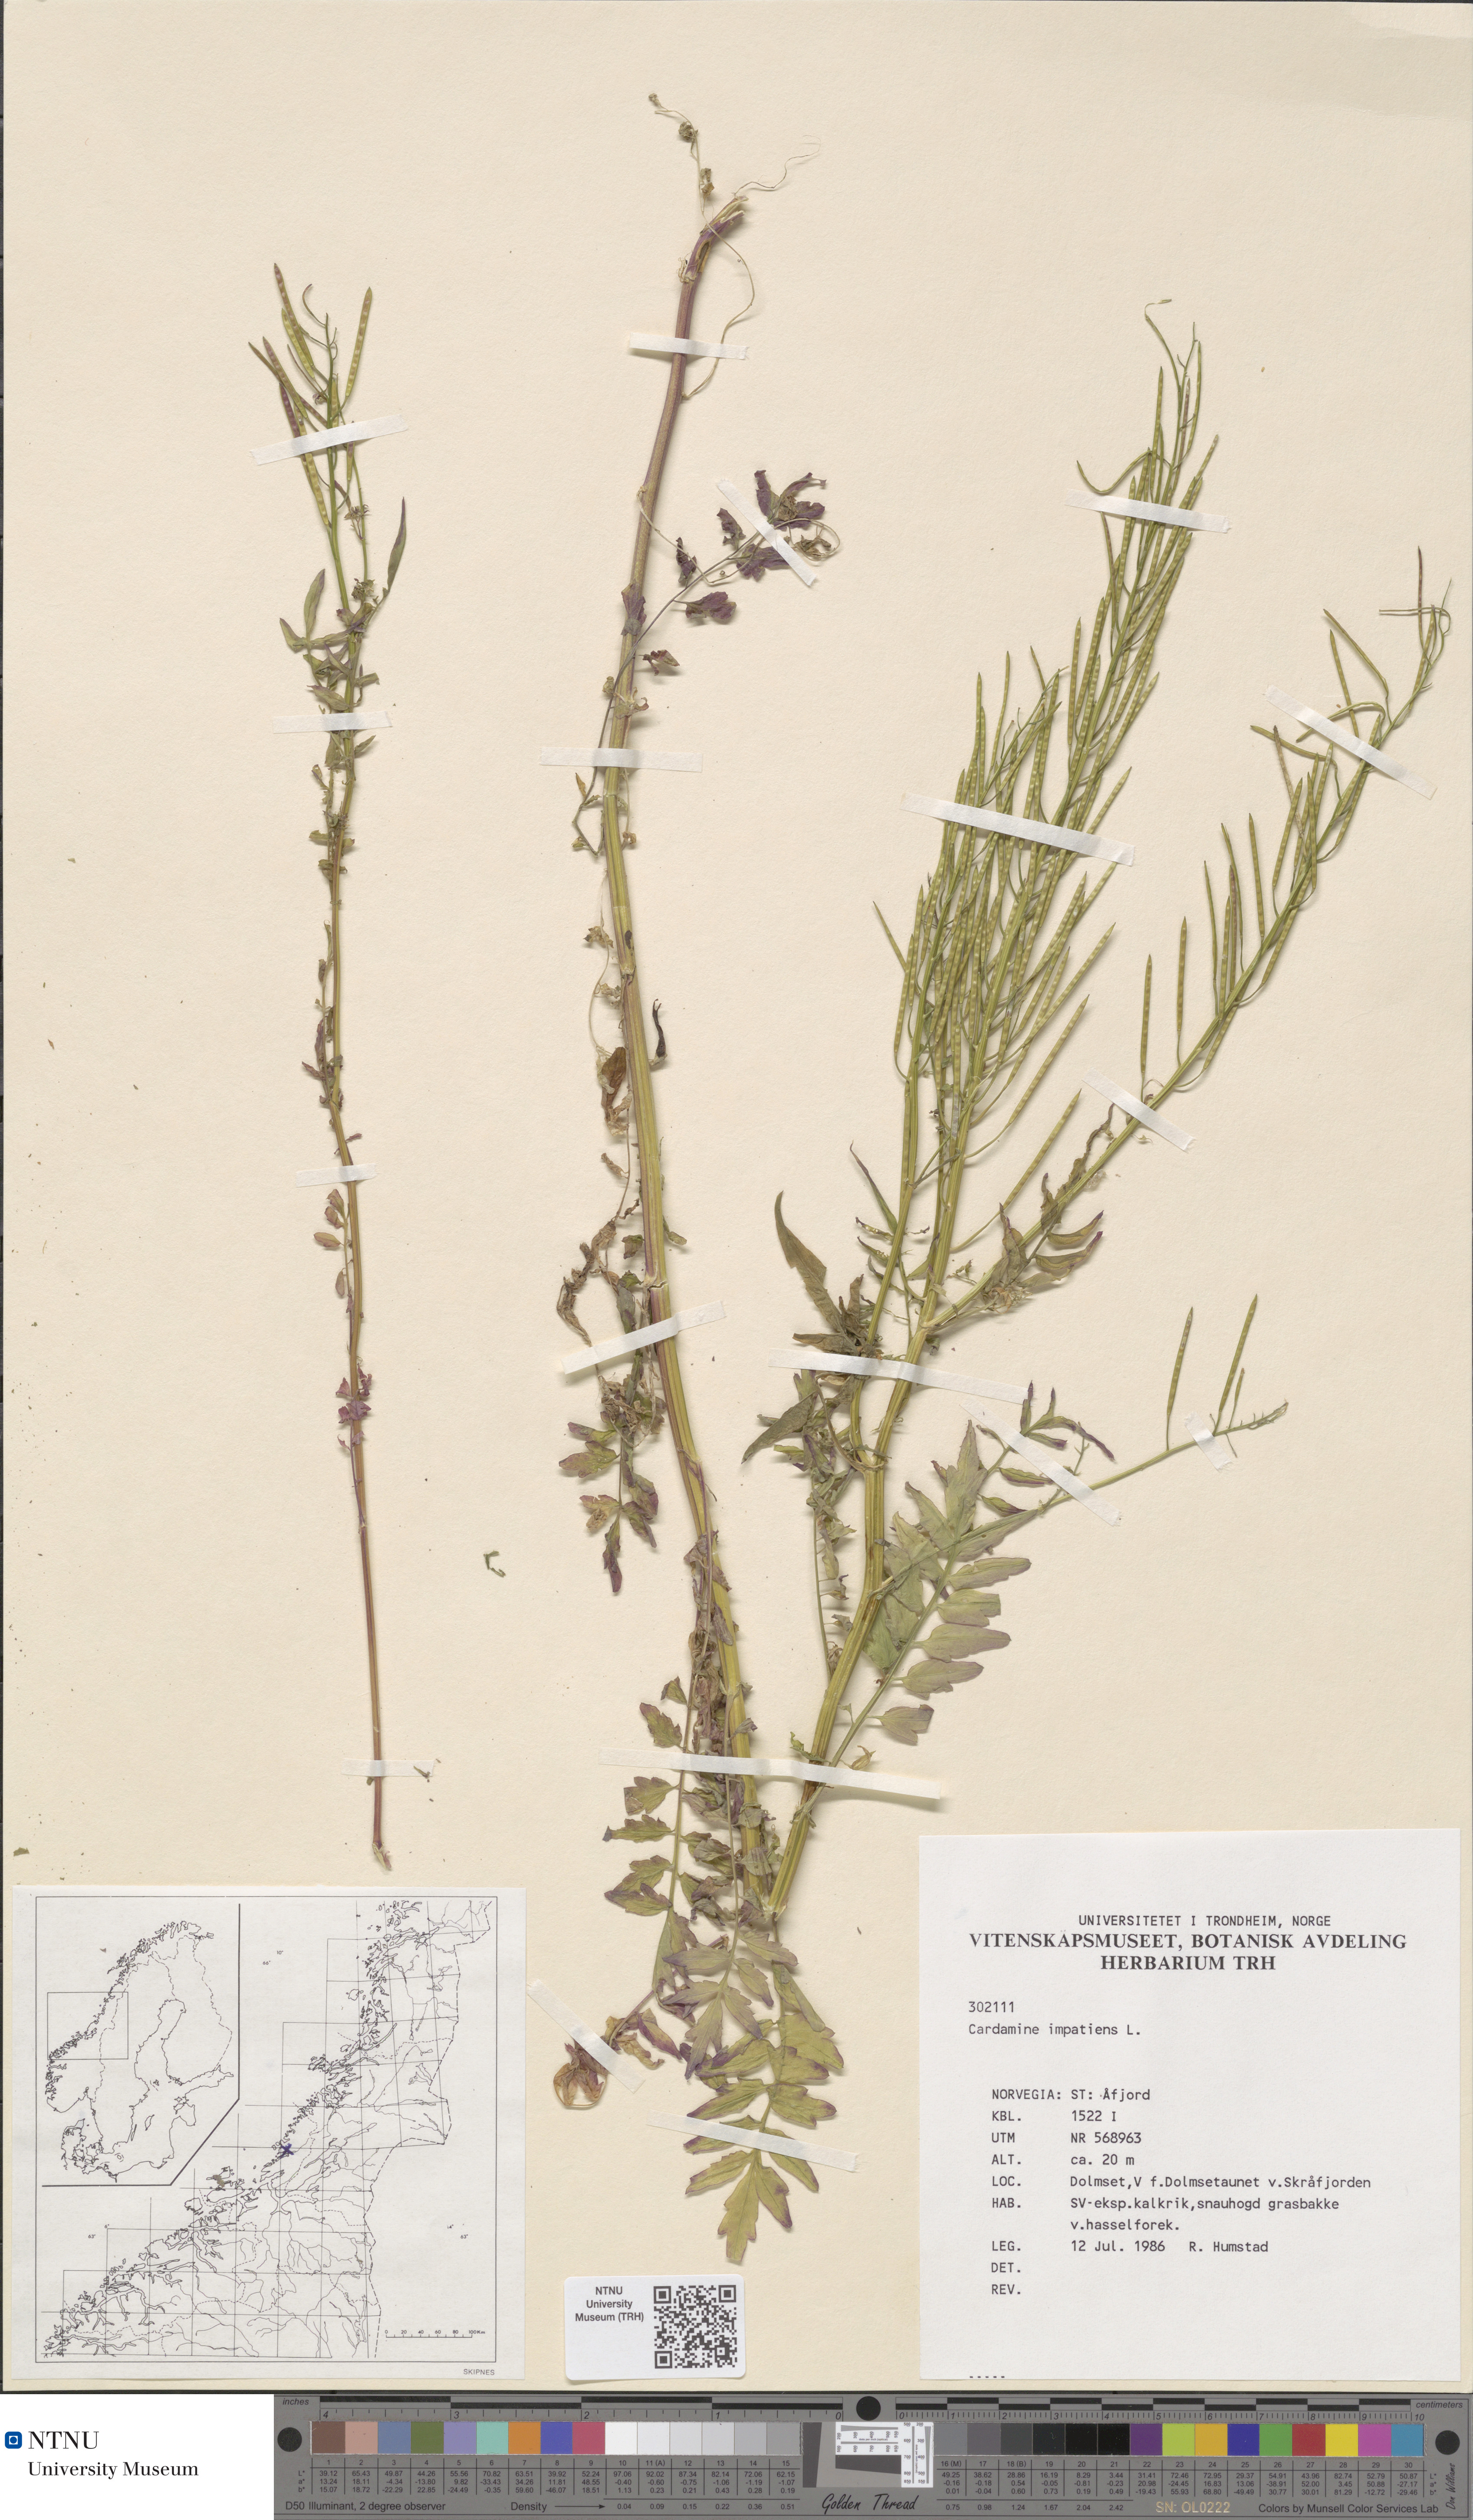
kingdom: Plantae
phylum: Tracheophyta
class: Magnoliopsida
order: Brassicales
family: Brassicaceae
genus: Cardamine
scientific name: Cardamine impatiens
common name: Narrow-leaved bitter-cress
